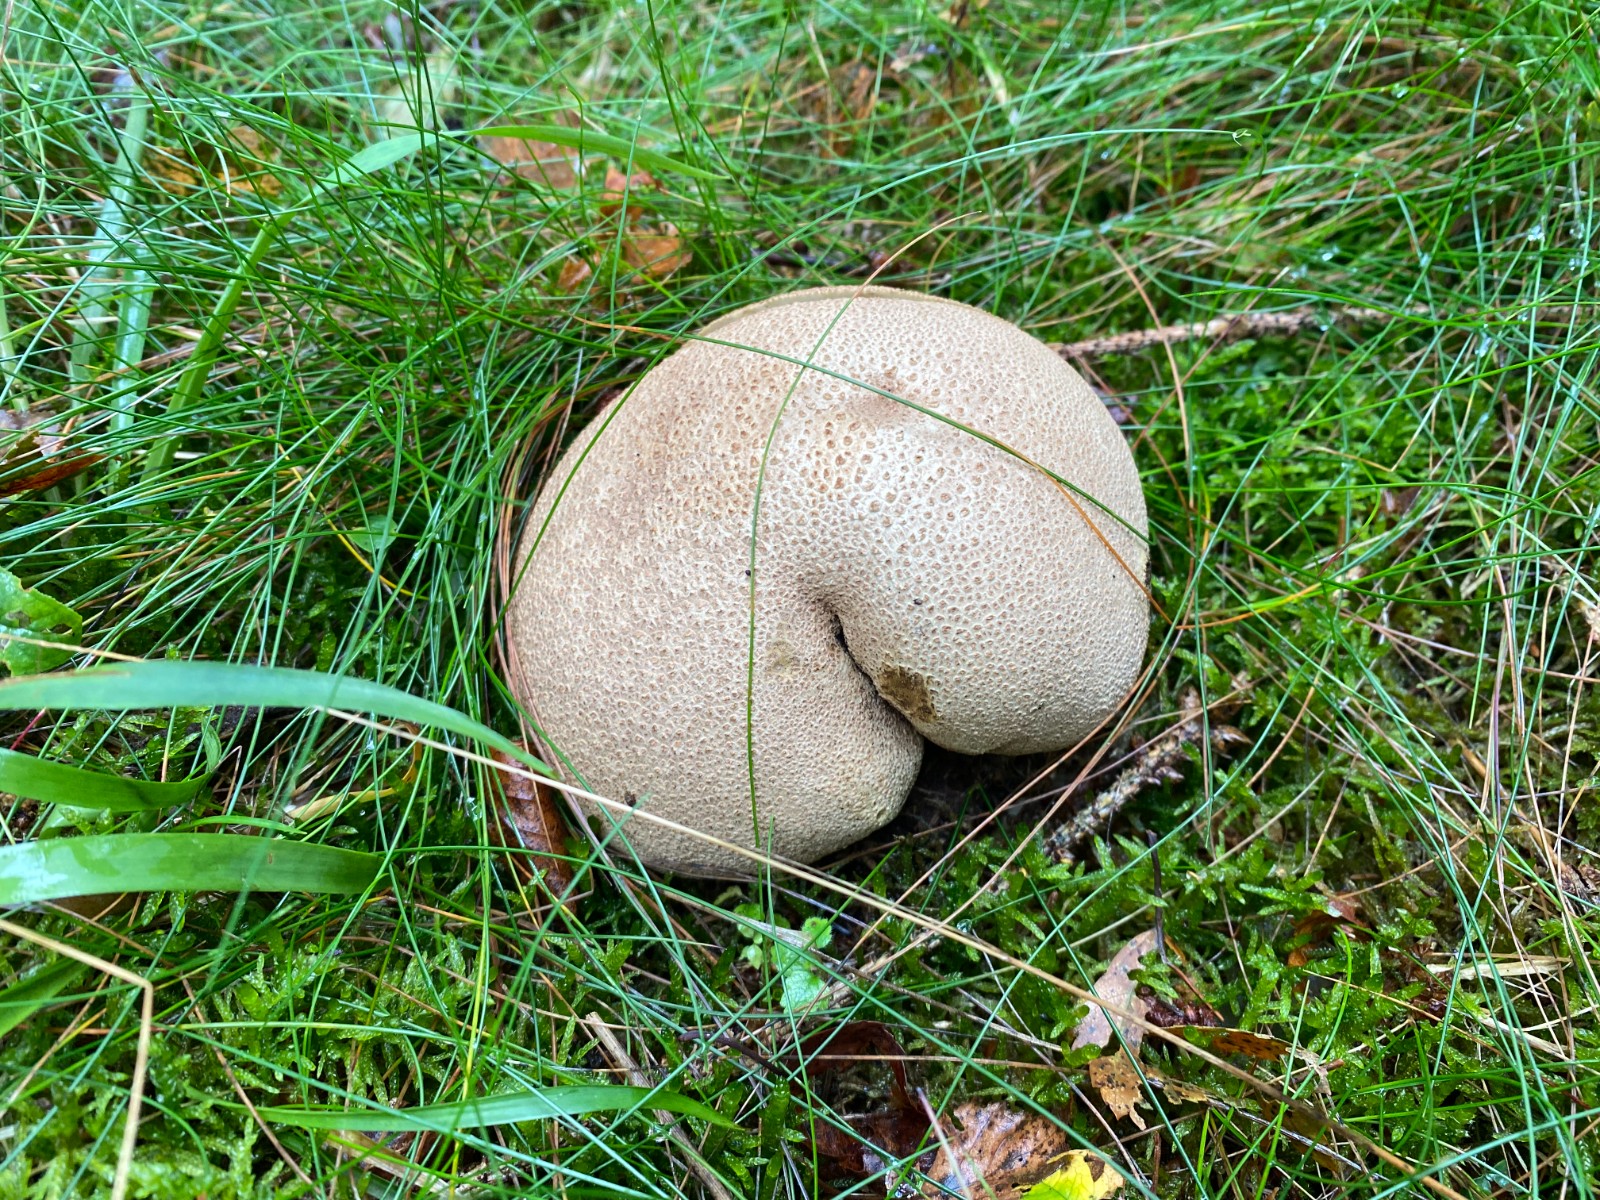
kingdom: Fungi
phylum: Basidiomycota
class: Agaricomycetes
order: Boletales
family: Sclerodermataceae
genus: Scleroderma
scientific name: Scleroderma citrinum
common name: almindelig bruskbold
